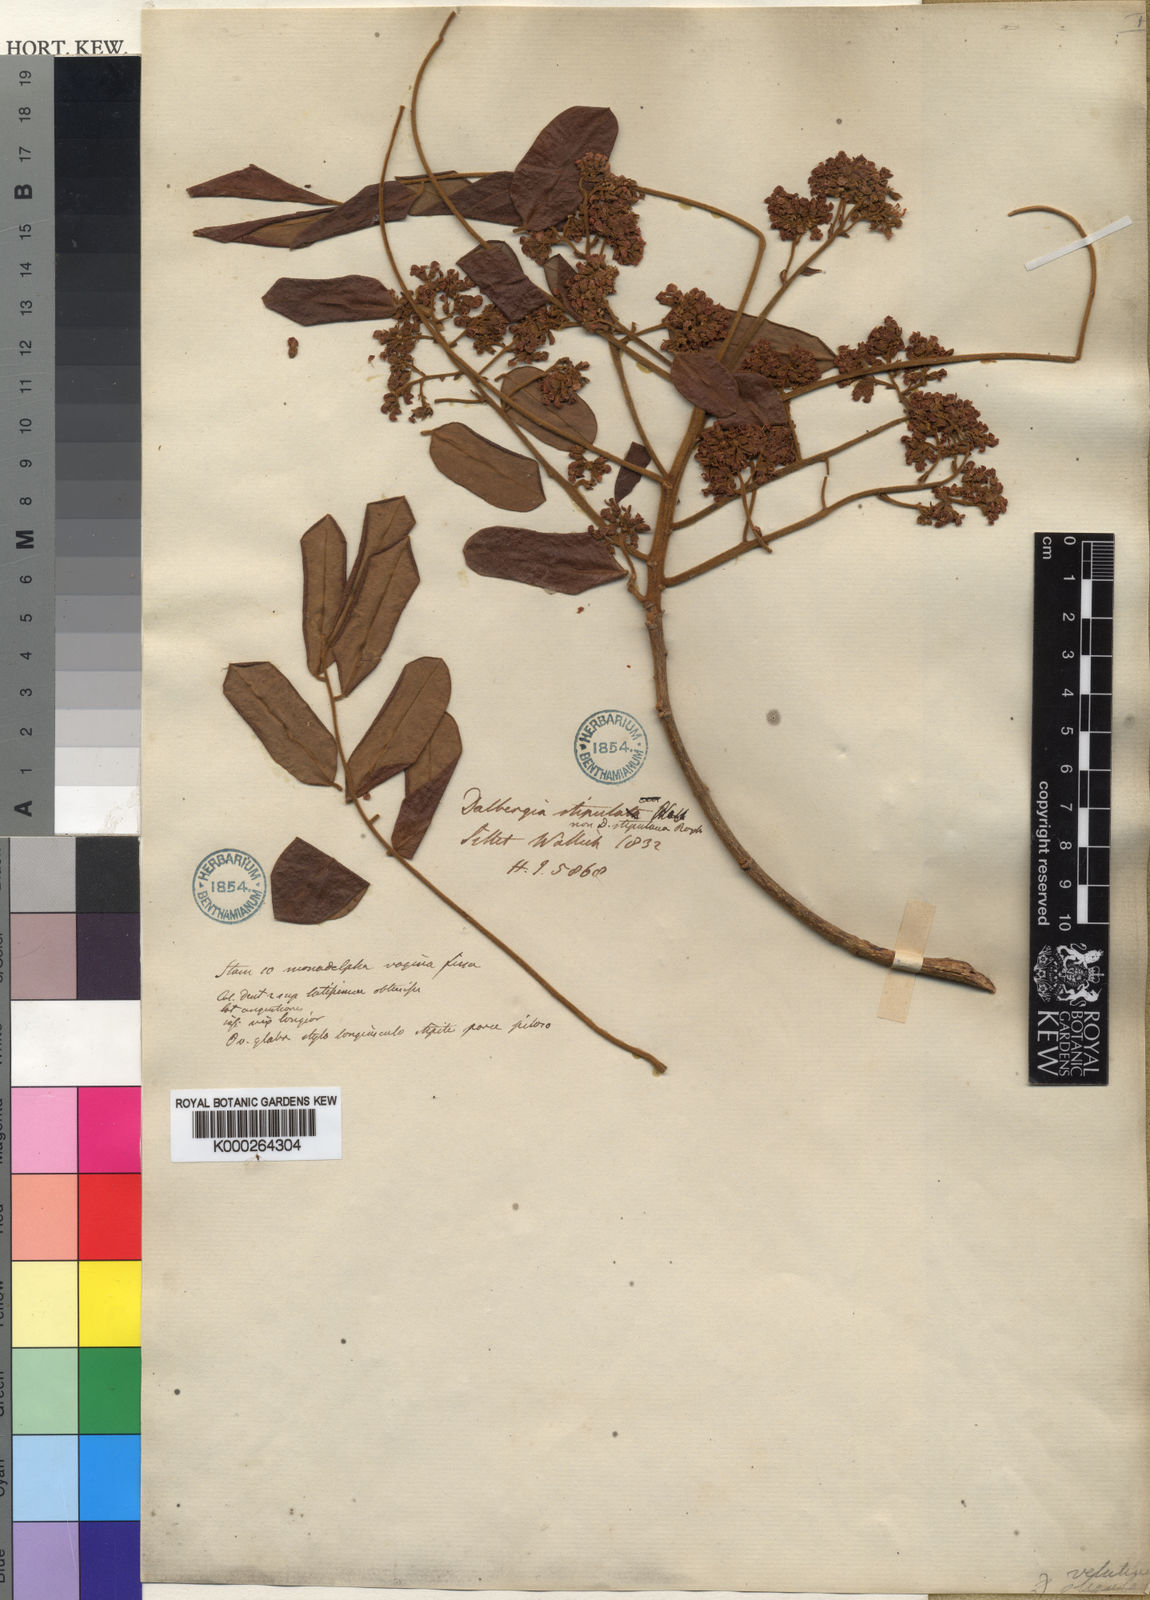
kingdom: Plantae
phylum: Tracheophyta
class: Magnoliopsida
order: Fabales
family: Fabaceae
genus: Dalbergia
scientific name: Dalbergia velutina
